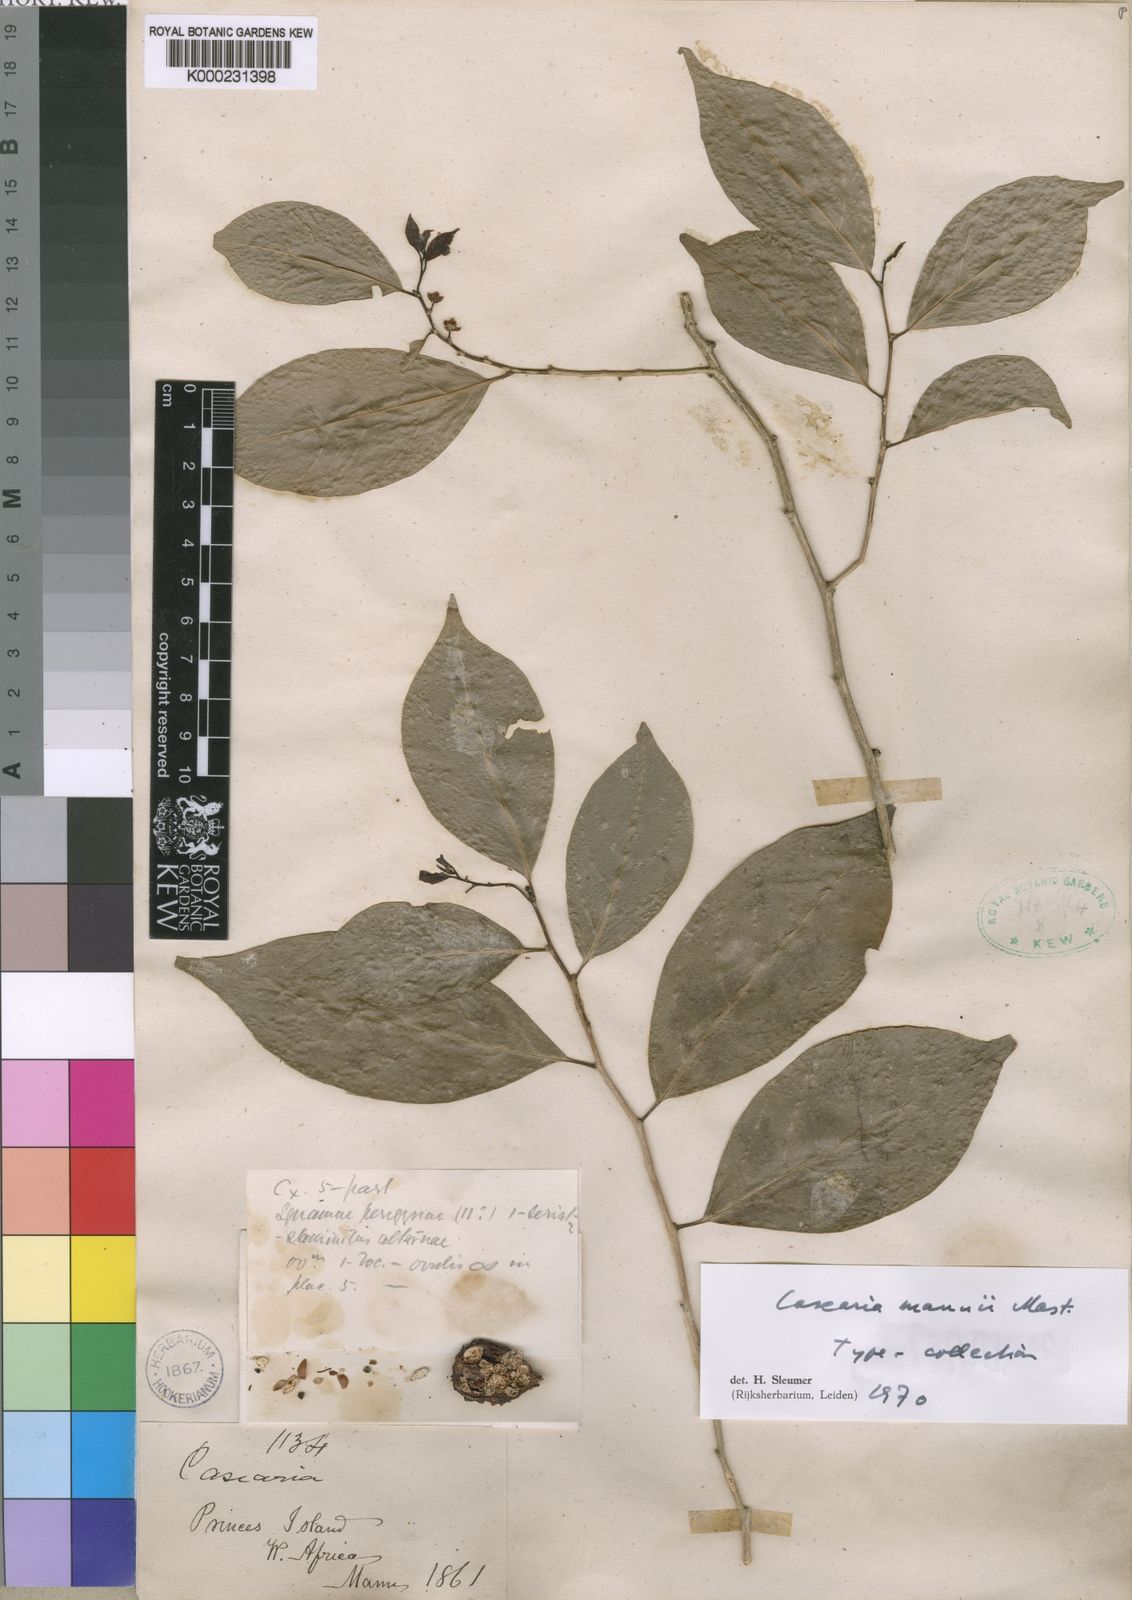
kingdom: Plantae
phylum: Tracheophyta
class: Magnoliopsida
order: Malpighiales
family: Salicaceae
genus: Casearia
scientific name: Casearia mannii
